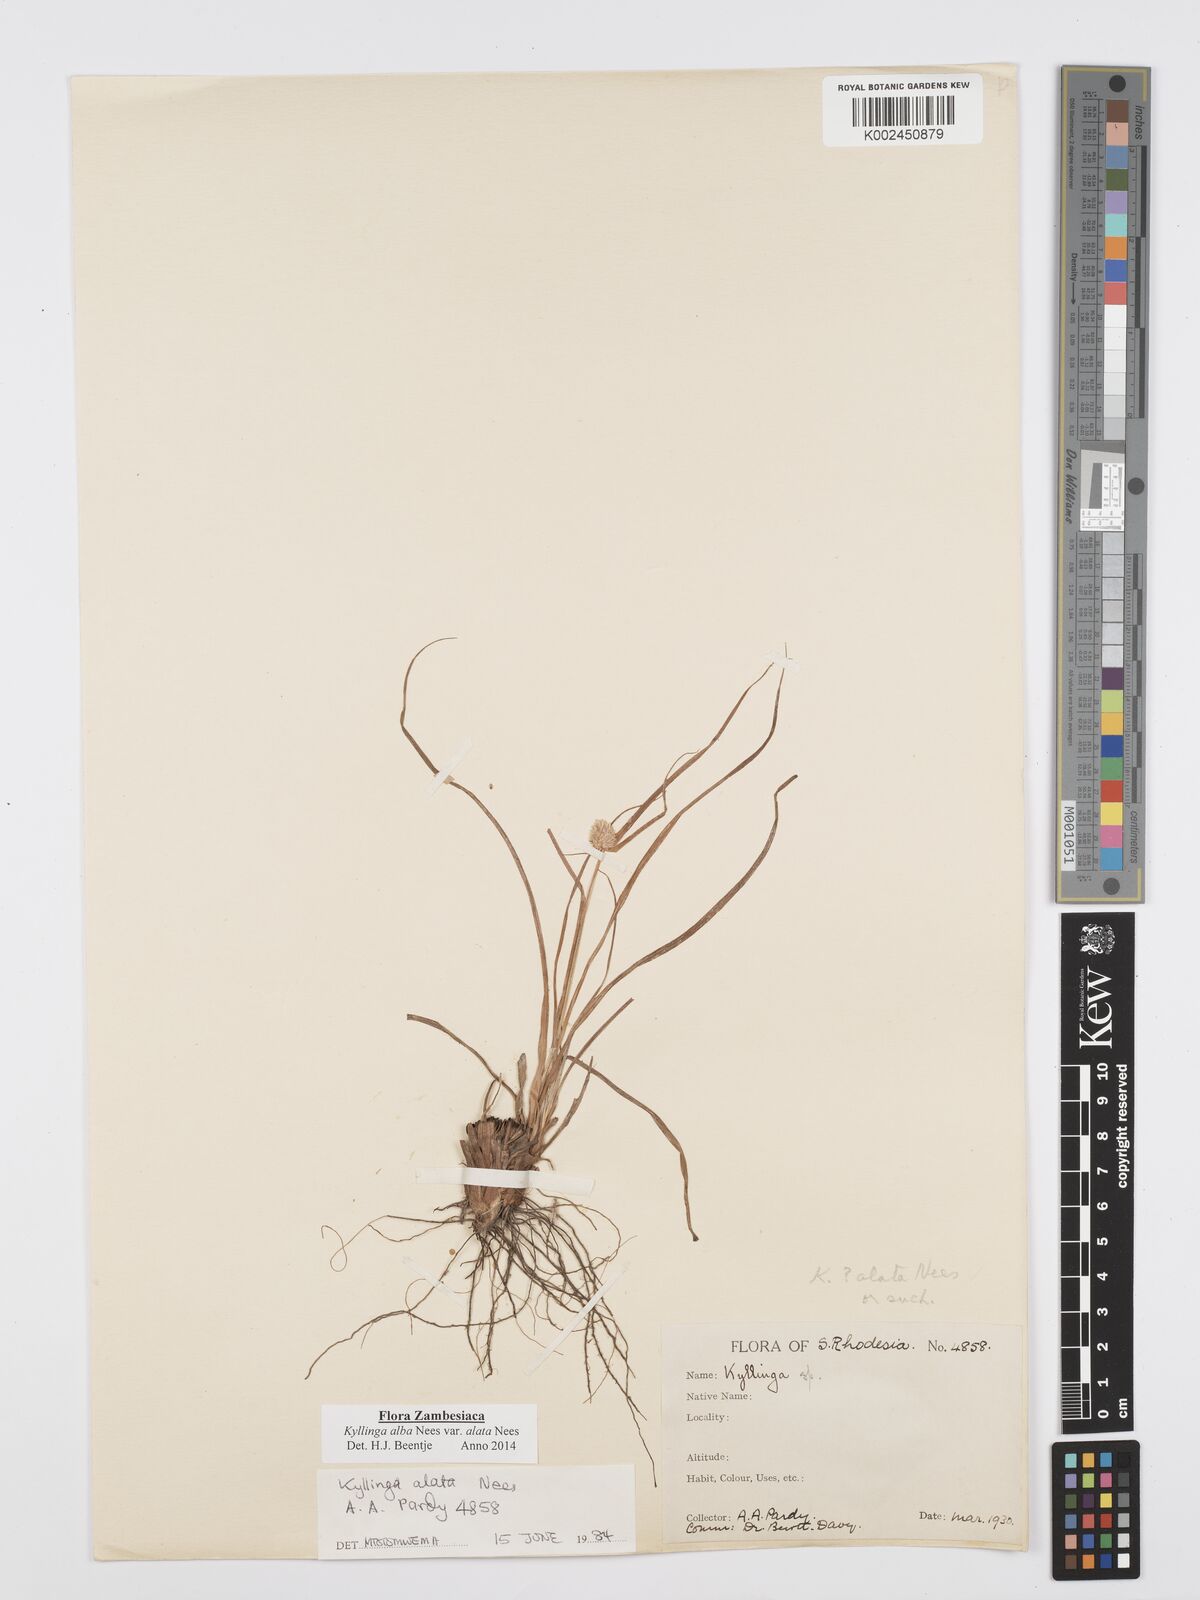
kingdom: Plantae
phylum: Tracheophyta
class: Liliopsida
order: Poales
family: Cyperaceae
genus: Cyperus
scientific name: Cyperus alatus
